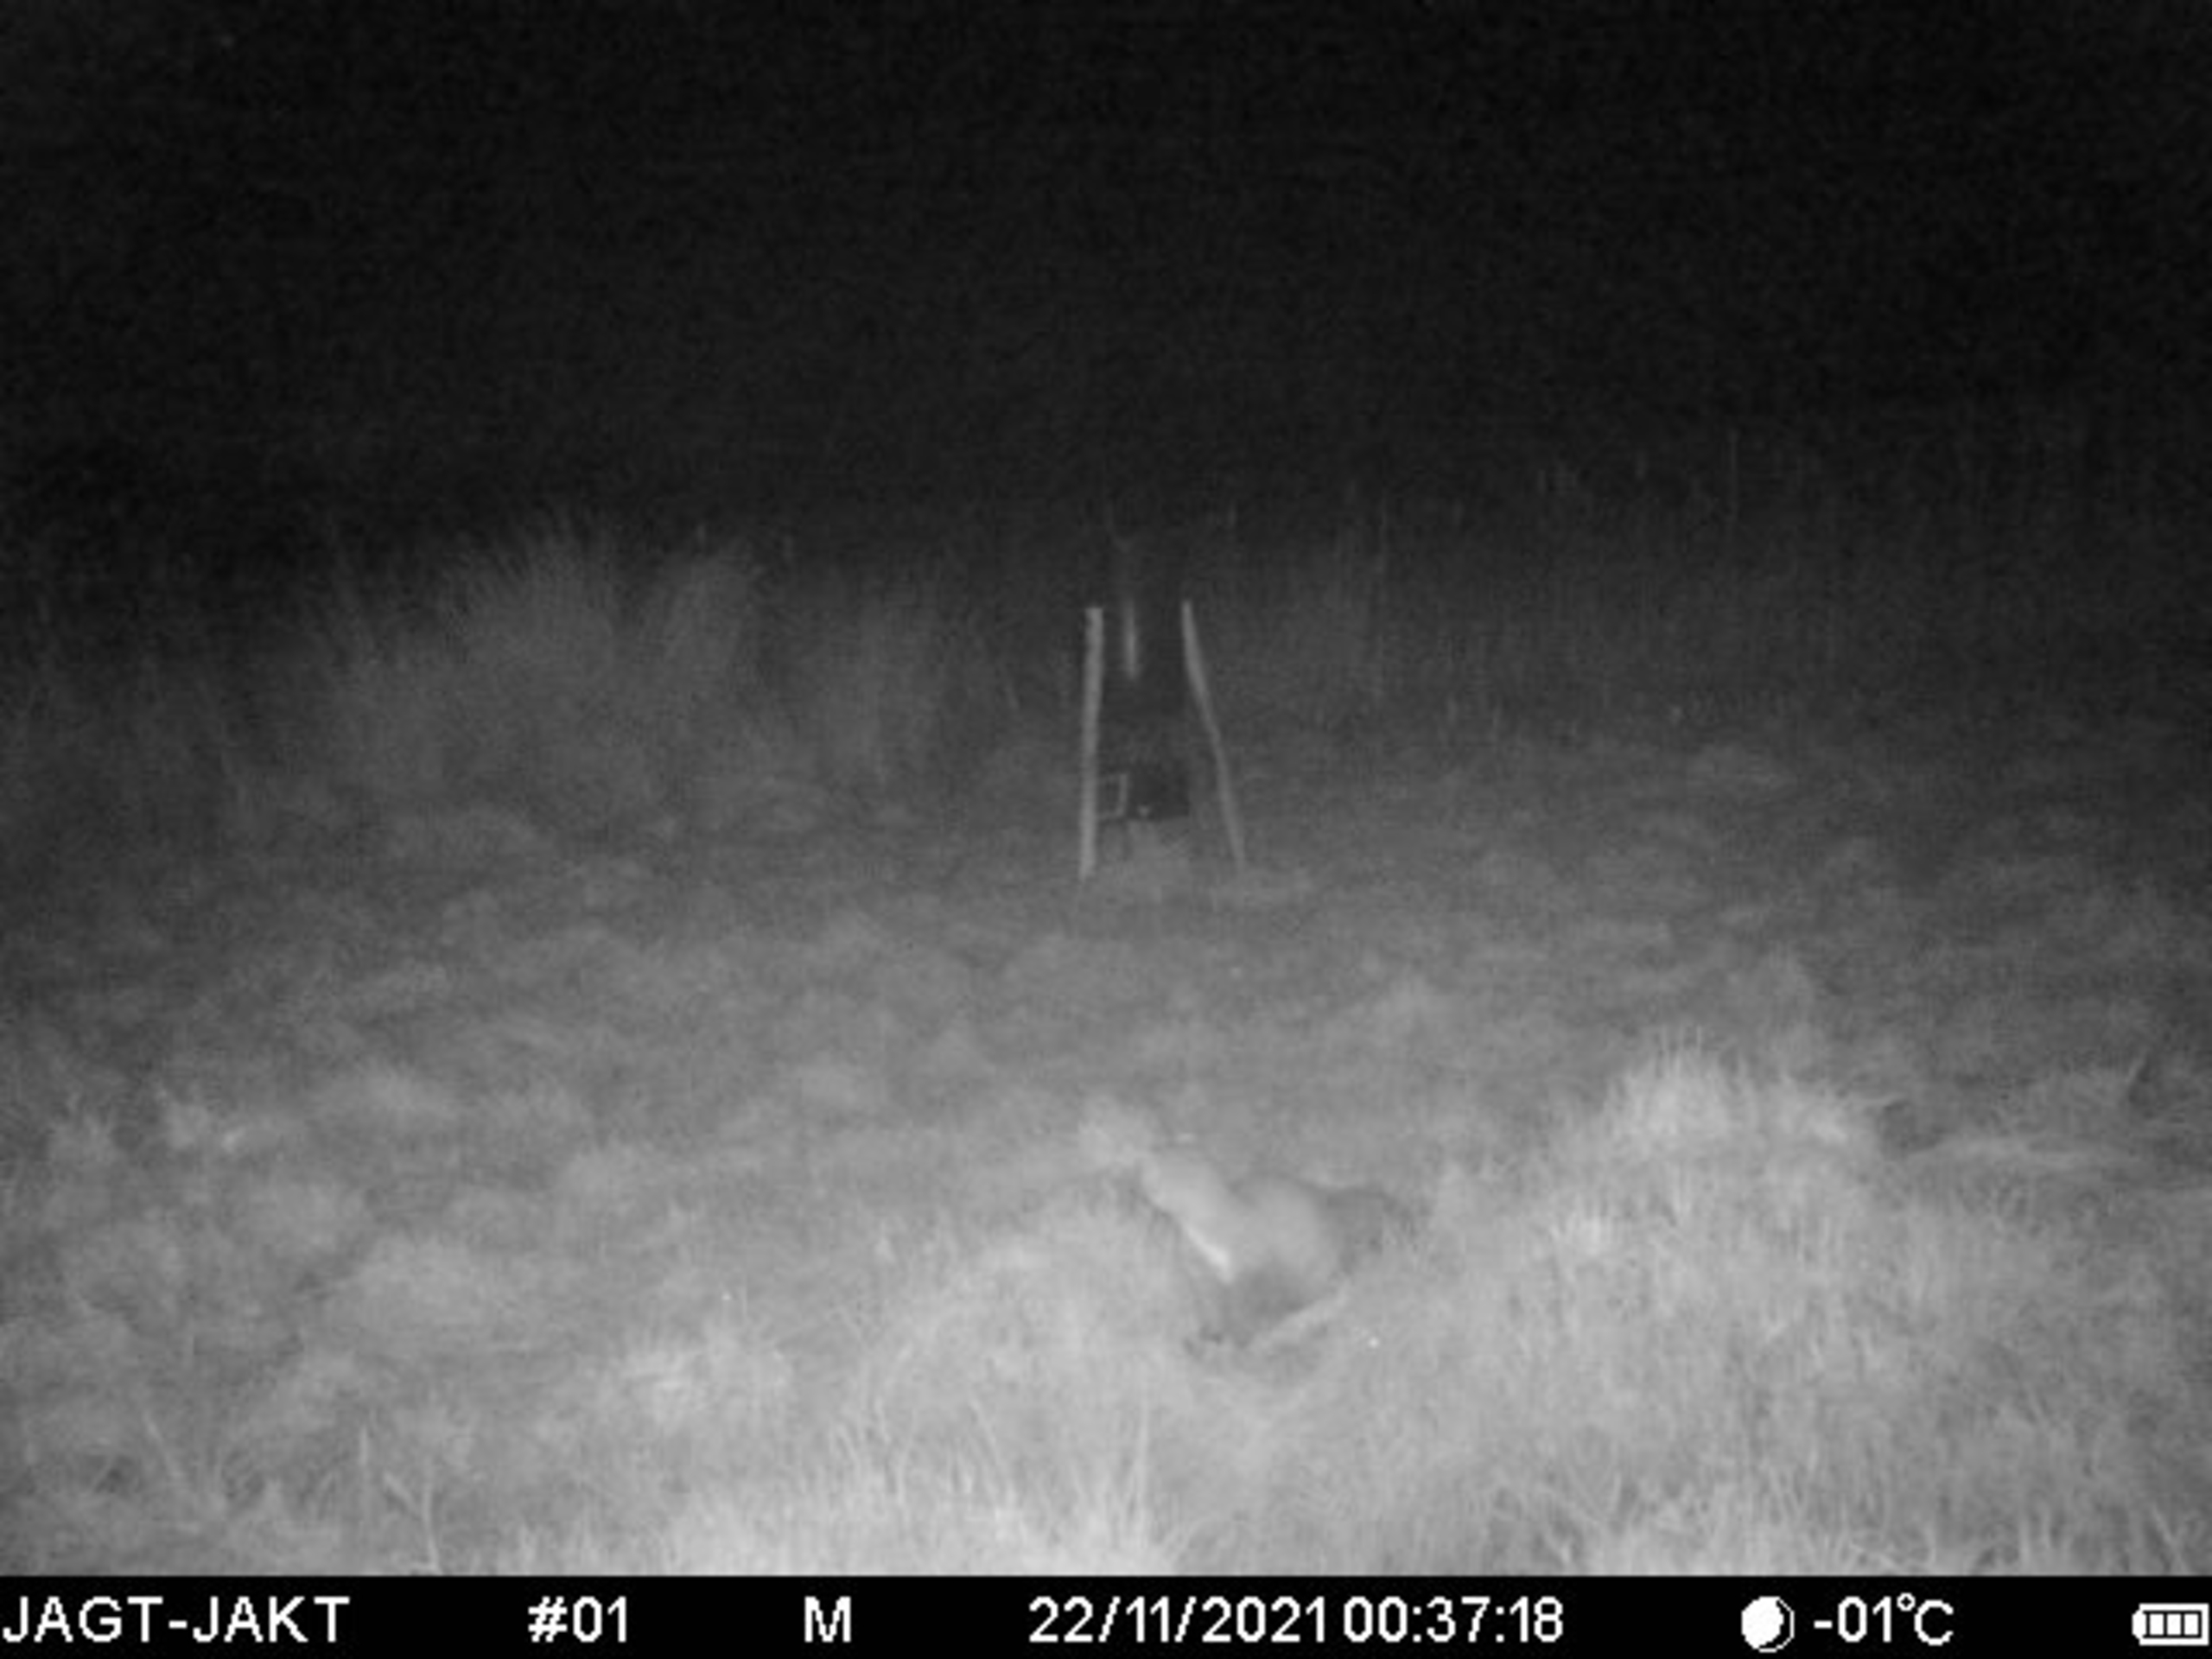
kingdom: Animalia
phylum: Chordata
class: Mammalia
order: Carnivora
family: Mustelidae
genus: Martes
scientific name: Martes foina
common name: Husmår
